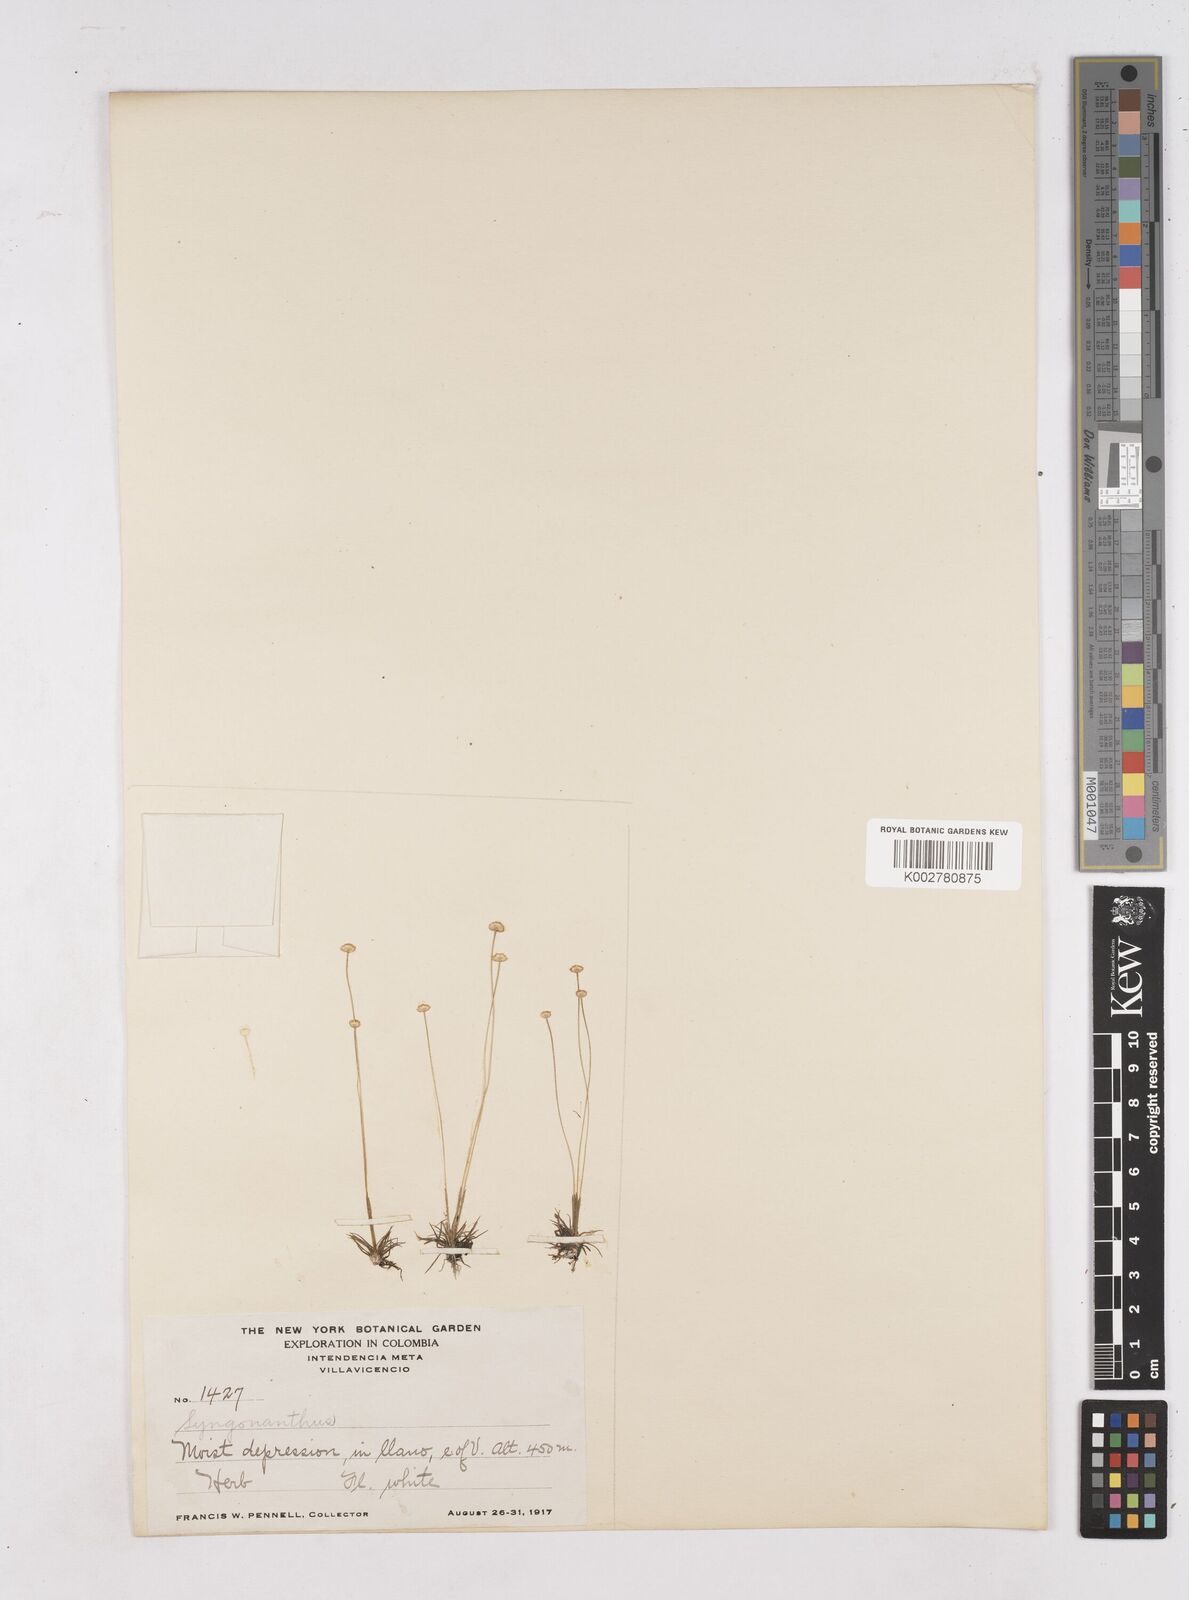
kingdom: Plantae
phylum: Tracheophyta
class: Liliopsida
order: Poales
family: Eriocaulaceae
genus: Paepalanthus
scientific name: Paepalanthus
